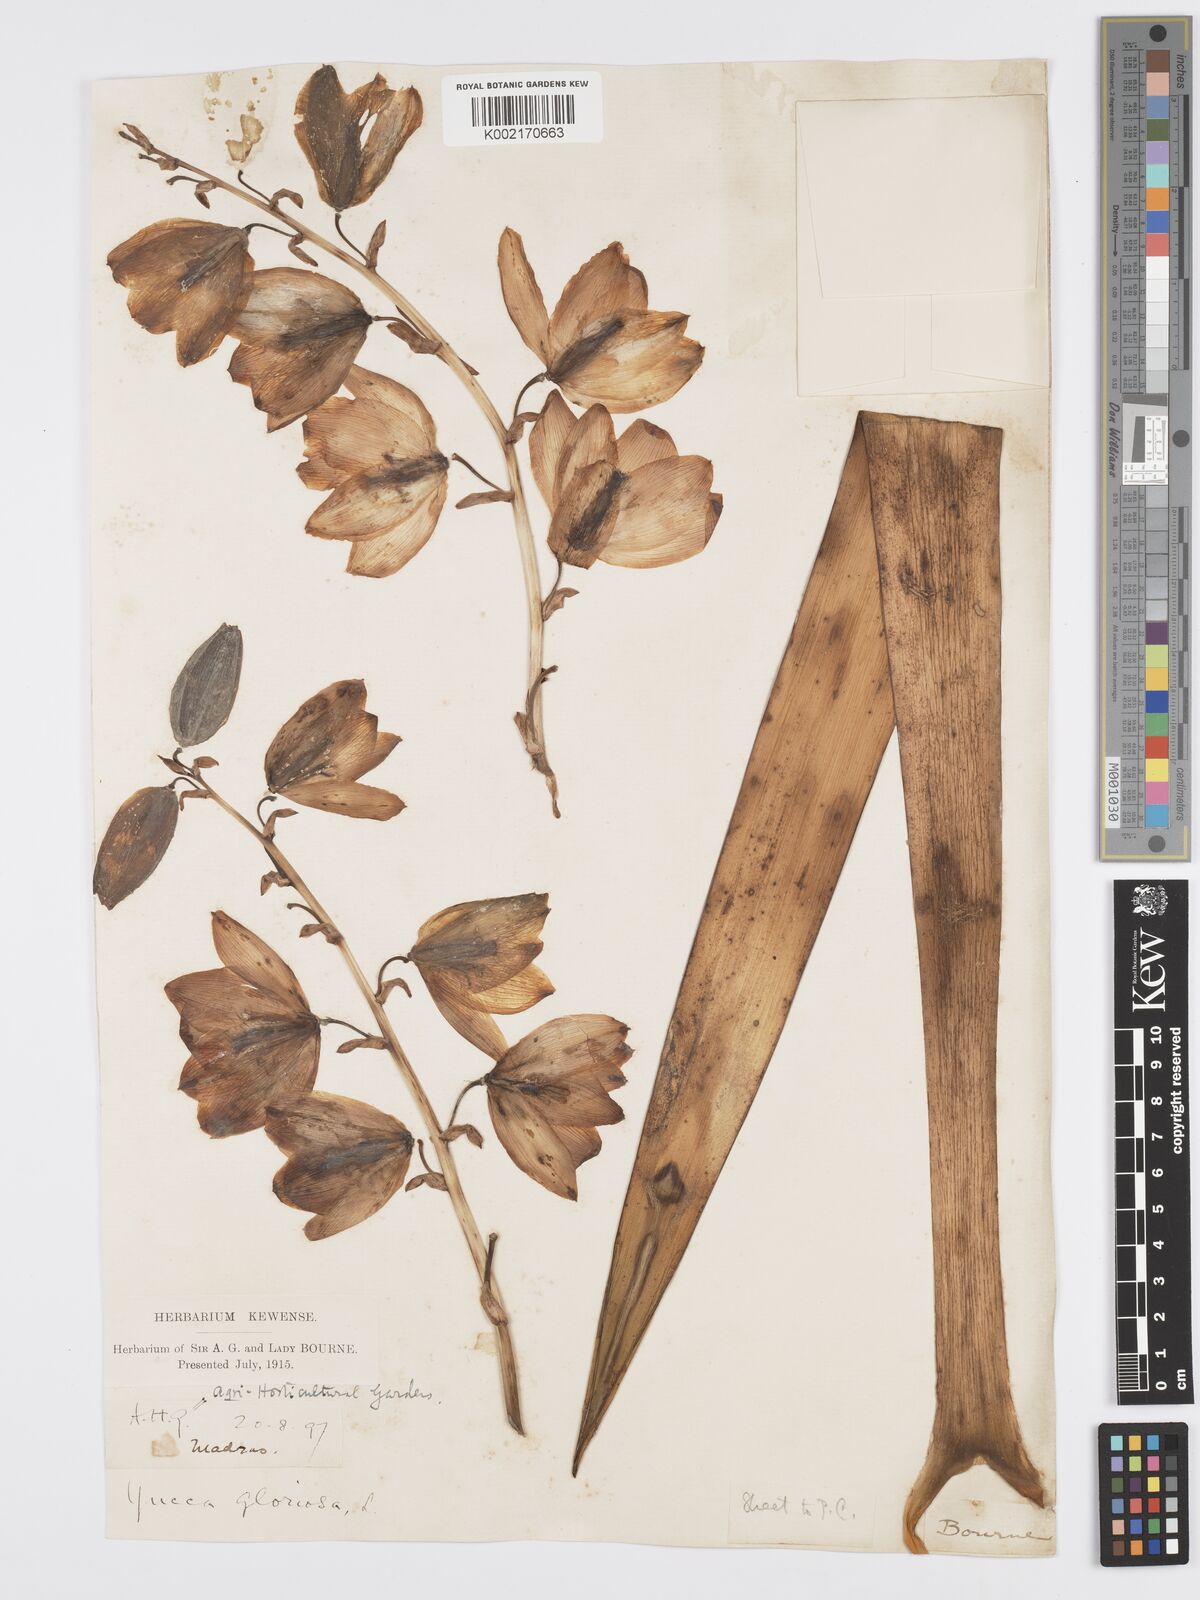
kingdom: Plantae
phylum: Tracheophyta
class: Liliopsida
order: Asparagales
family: Asparagaceae
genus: Yucca
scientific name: Yucca gloriosa
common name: Spanish-dagger
